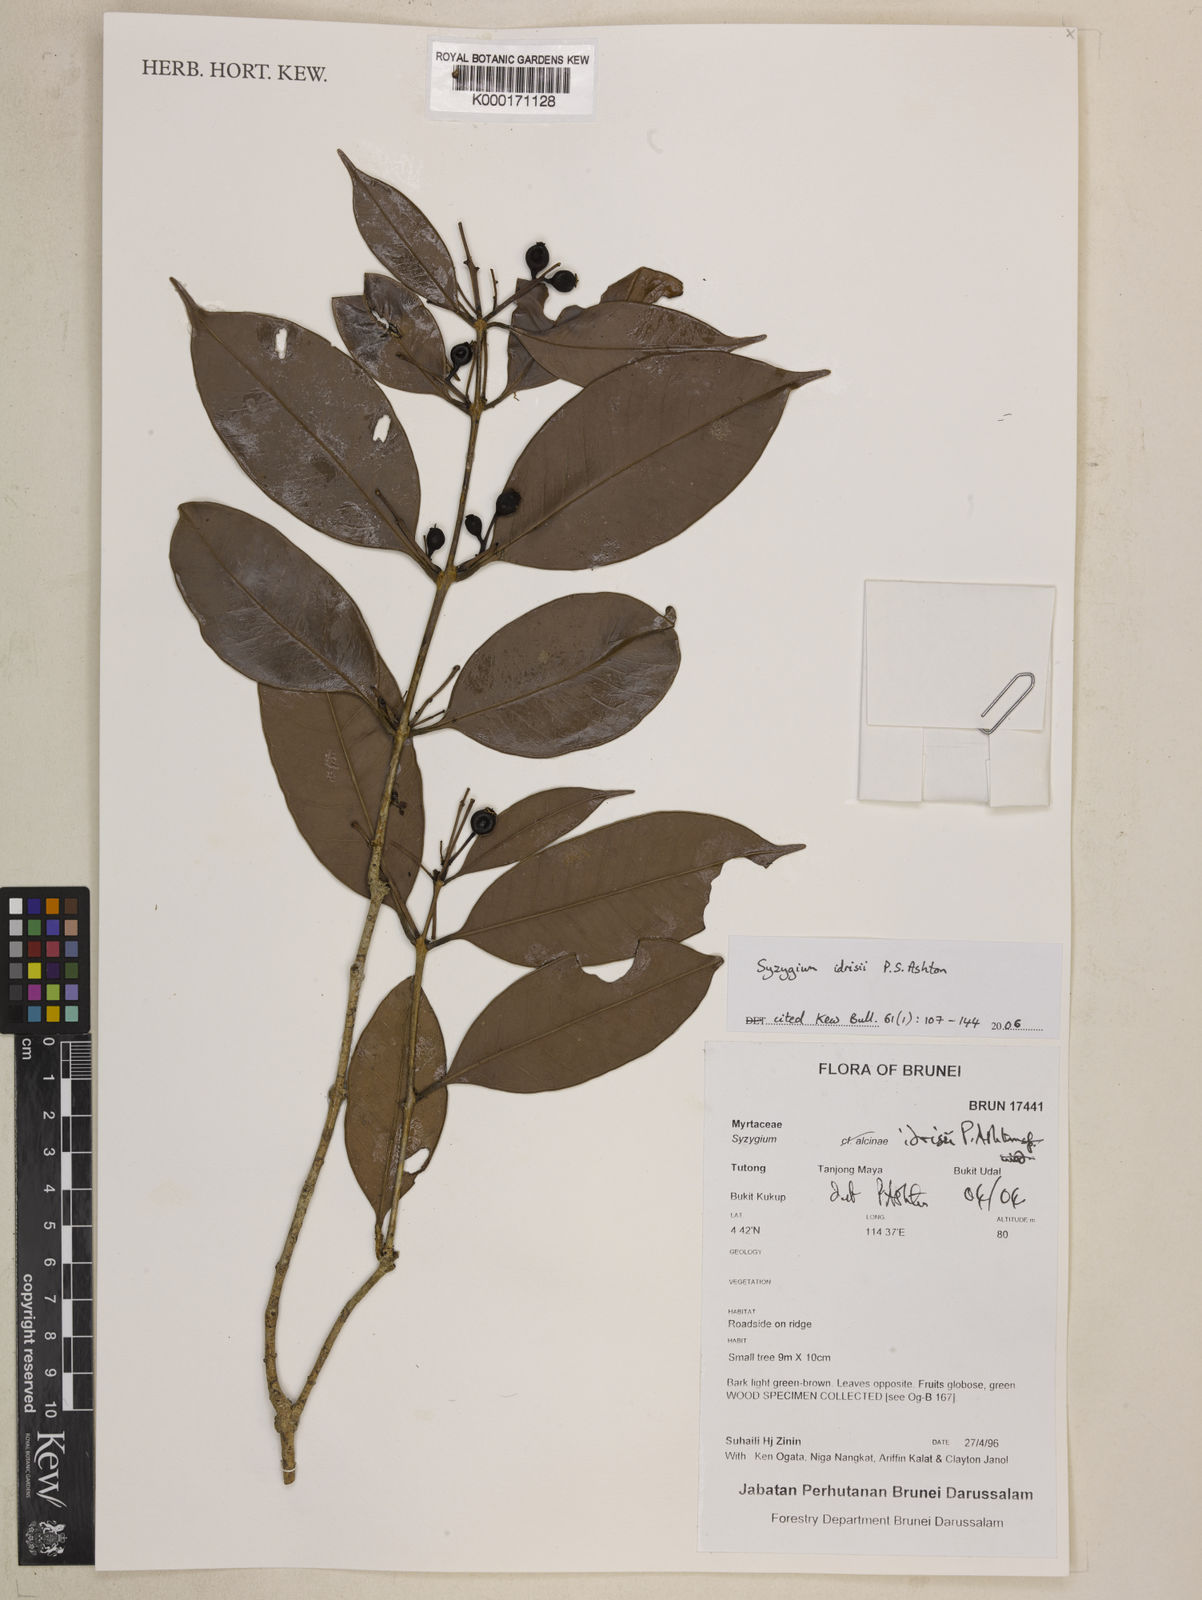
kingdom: Plantae
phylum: Tracheophyta
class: Magnoliopsida
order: Myrtales
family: Myrtaceae
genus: Syzygium
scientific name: Syzygium idrisii
